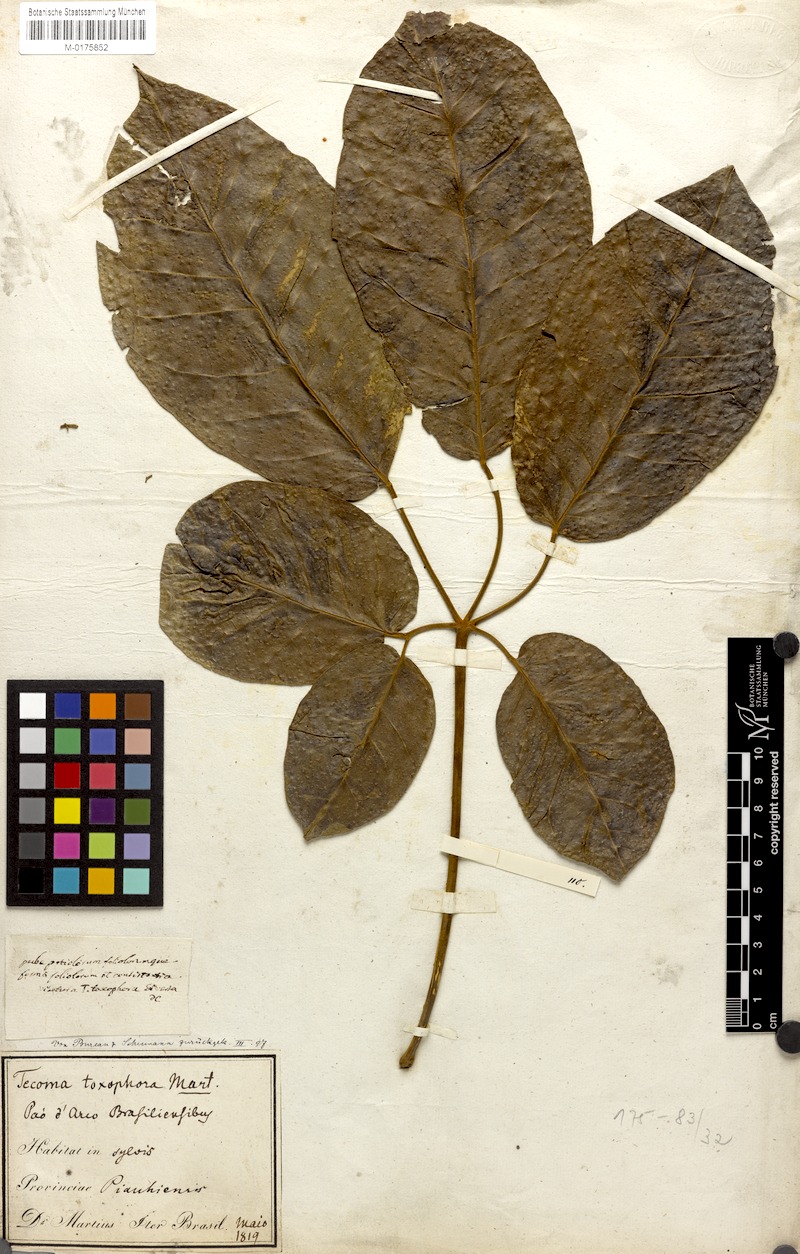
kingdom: Plantae
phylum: Tracheophyta
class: Magnoliopsida
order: Lamiales
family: Bignoniaceae
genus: Handroanthus
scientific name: Handroanthus barbatus
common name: Trumpet trees
